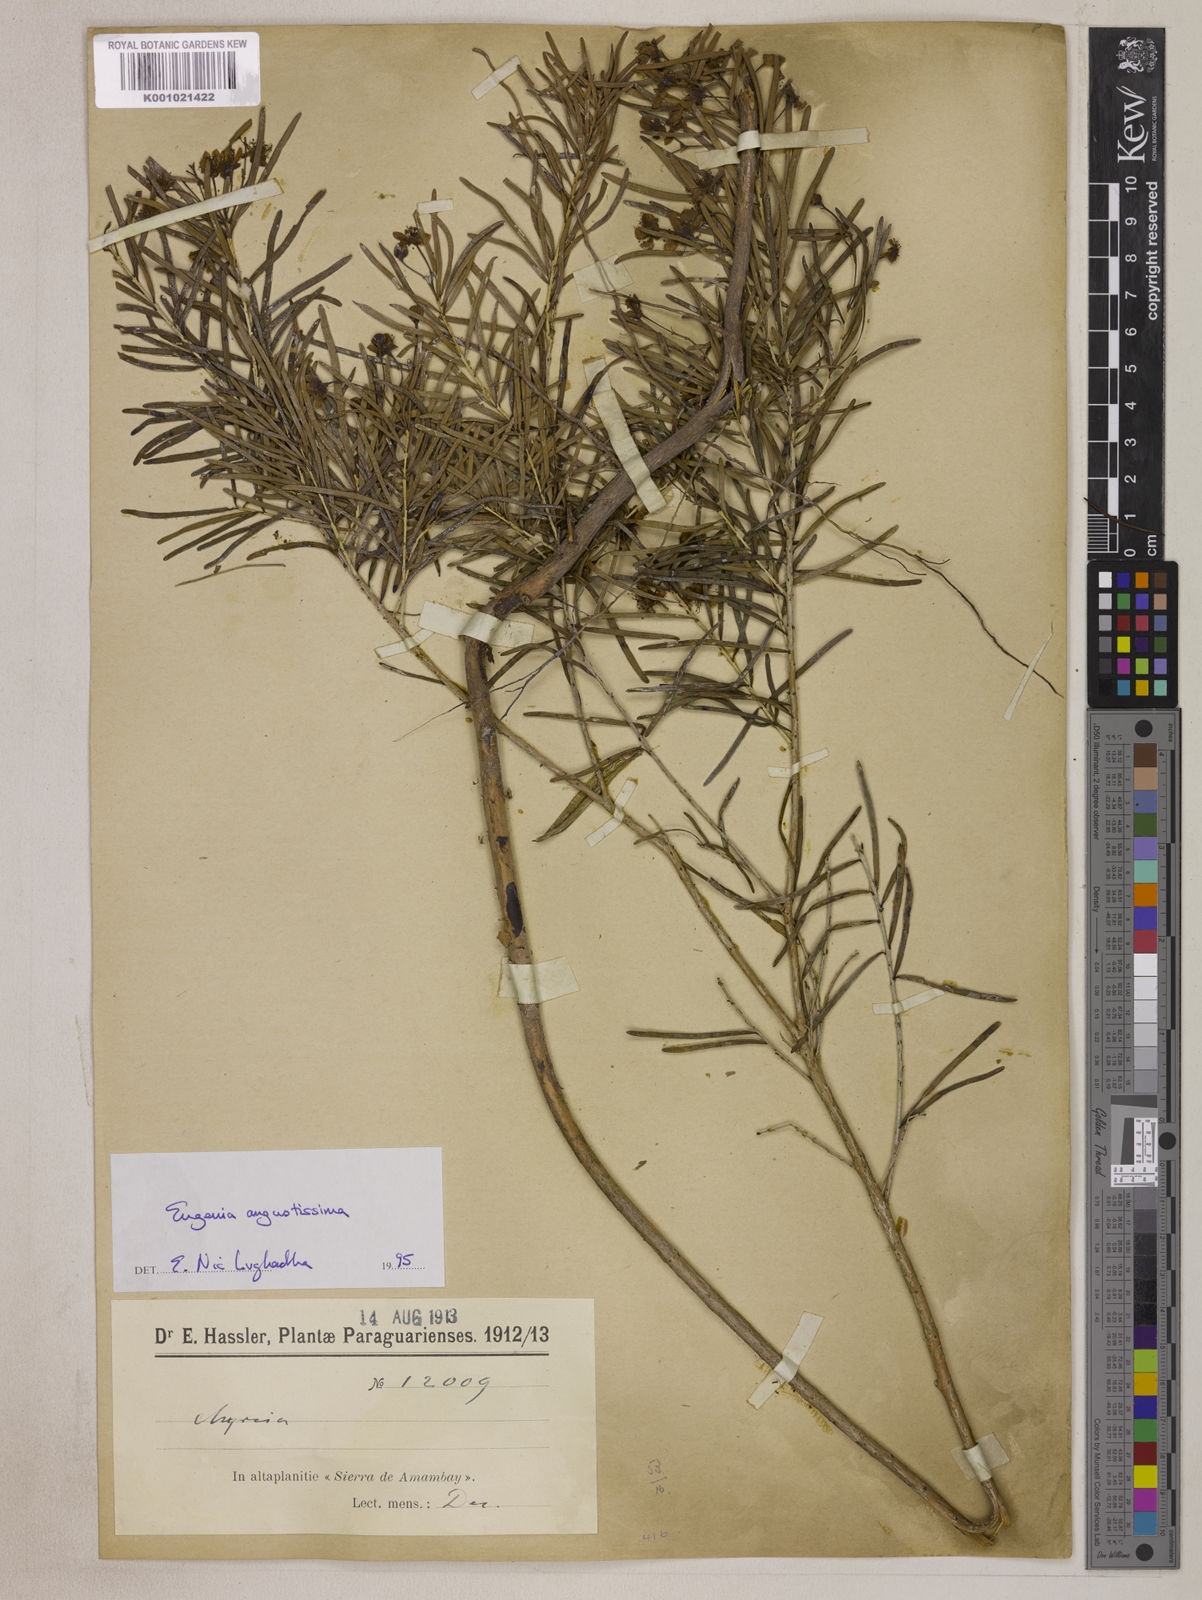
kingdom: Plantae
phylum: Tracheophyta
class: Magnoliopsida
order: Myrtales
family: Myrtaceae
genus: Eugenia
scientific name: Eugenia angustissima
